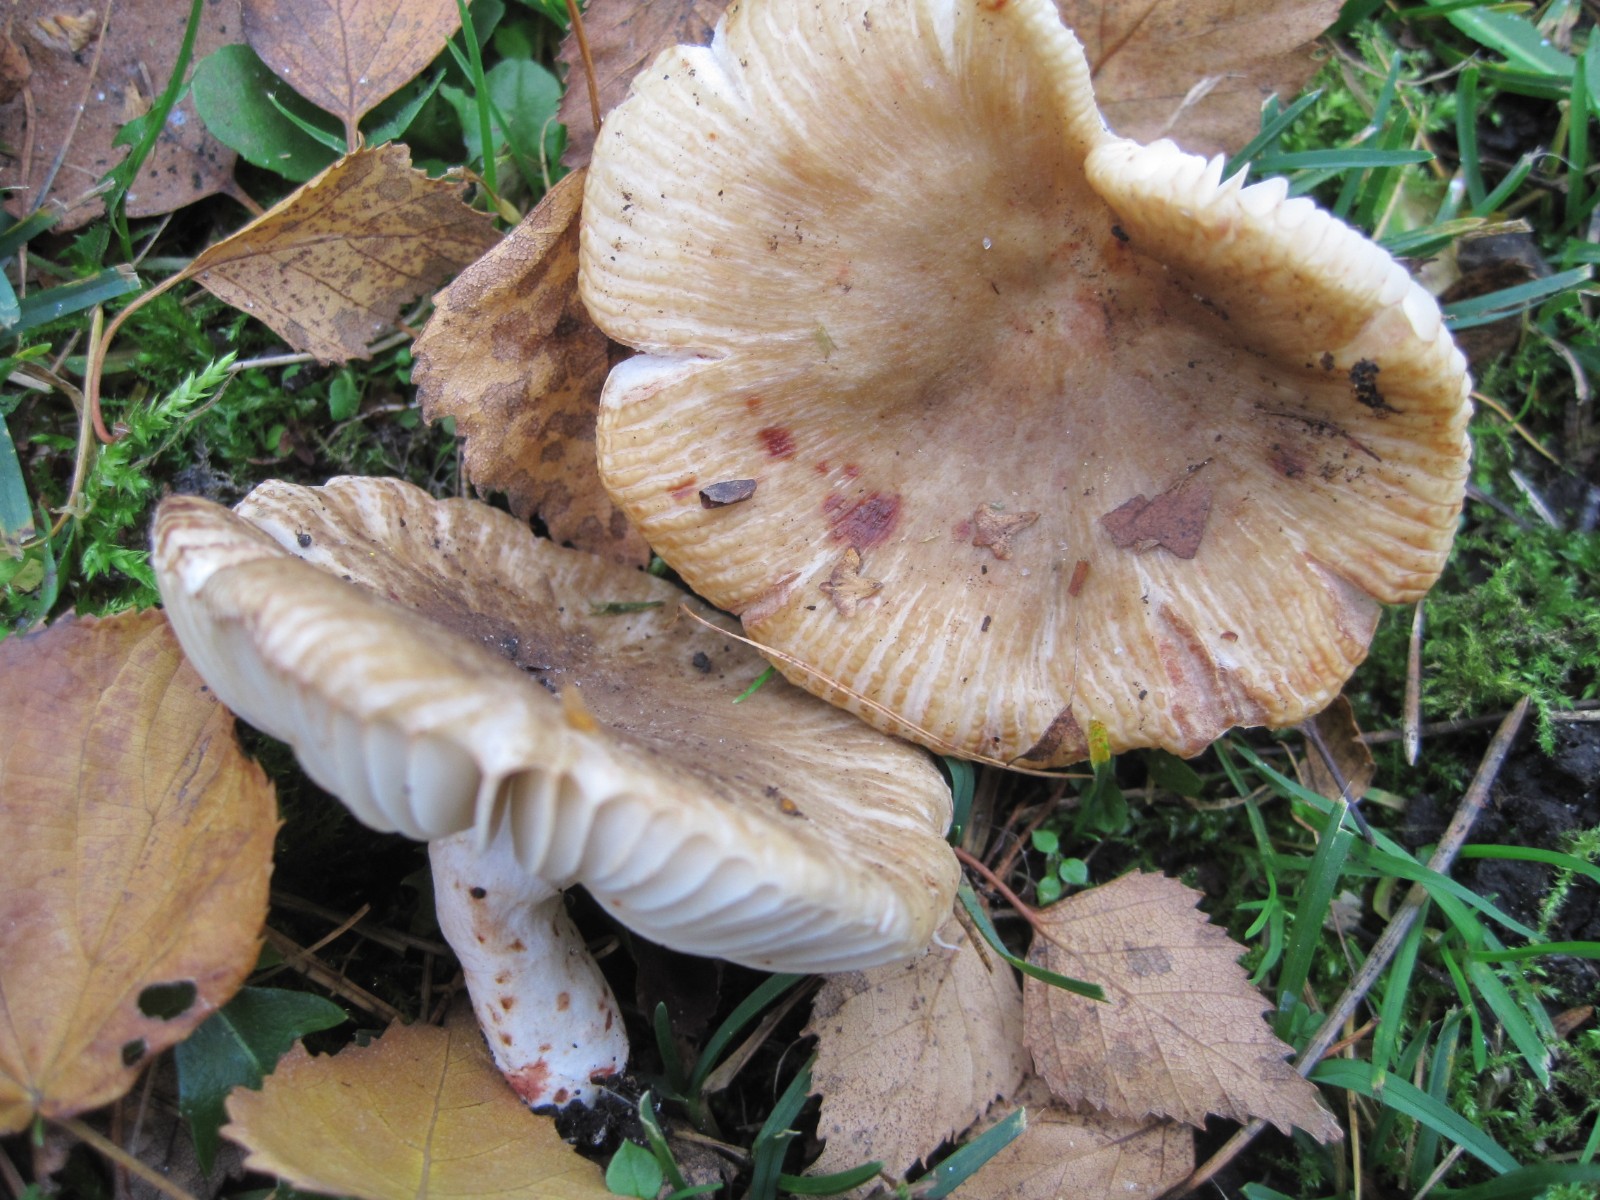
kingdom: Fungi
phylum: Basidiomycota
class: Agaricomycetes
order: Russulales
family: Russulaceae
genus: Russula
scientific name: Russula recondita
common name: mild kam-skørhat
